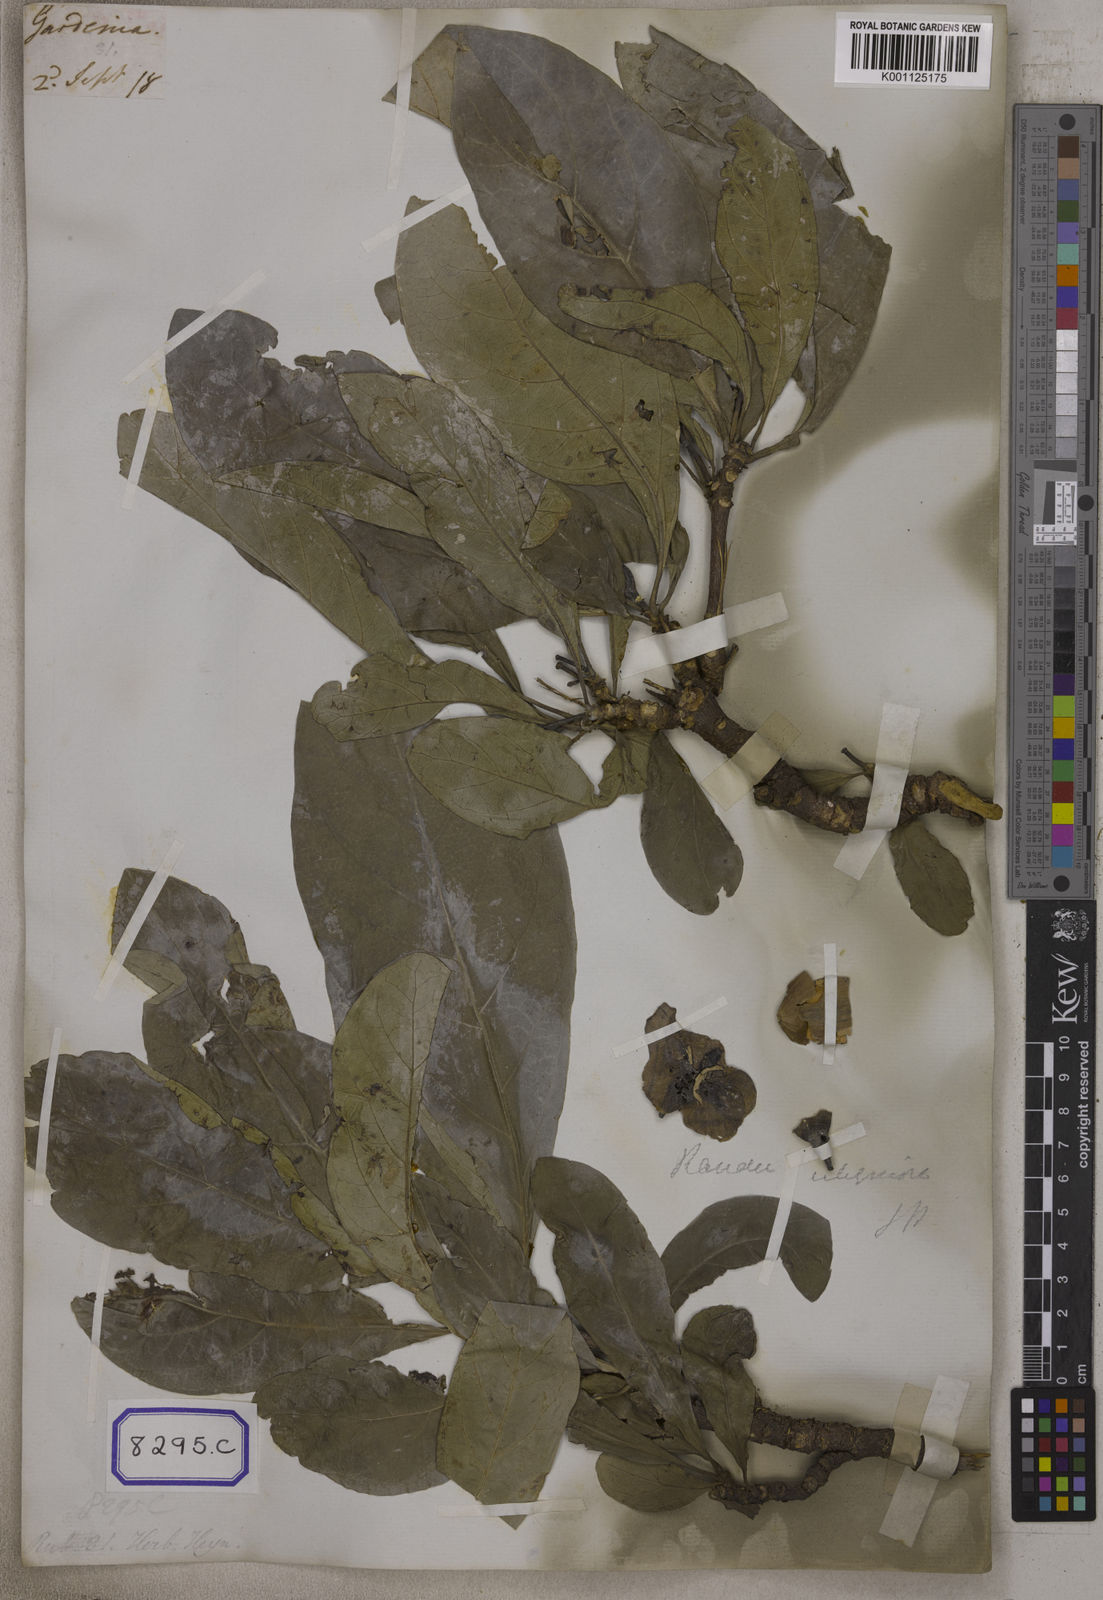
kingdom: Plantae
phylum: Tracheophyta
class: Magnoliopsida
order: Gentianales
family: Rubiaceae
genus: Gardenia
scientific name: Gardenia
